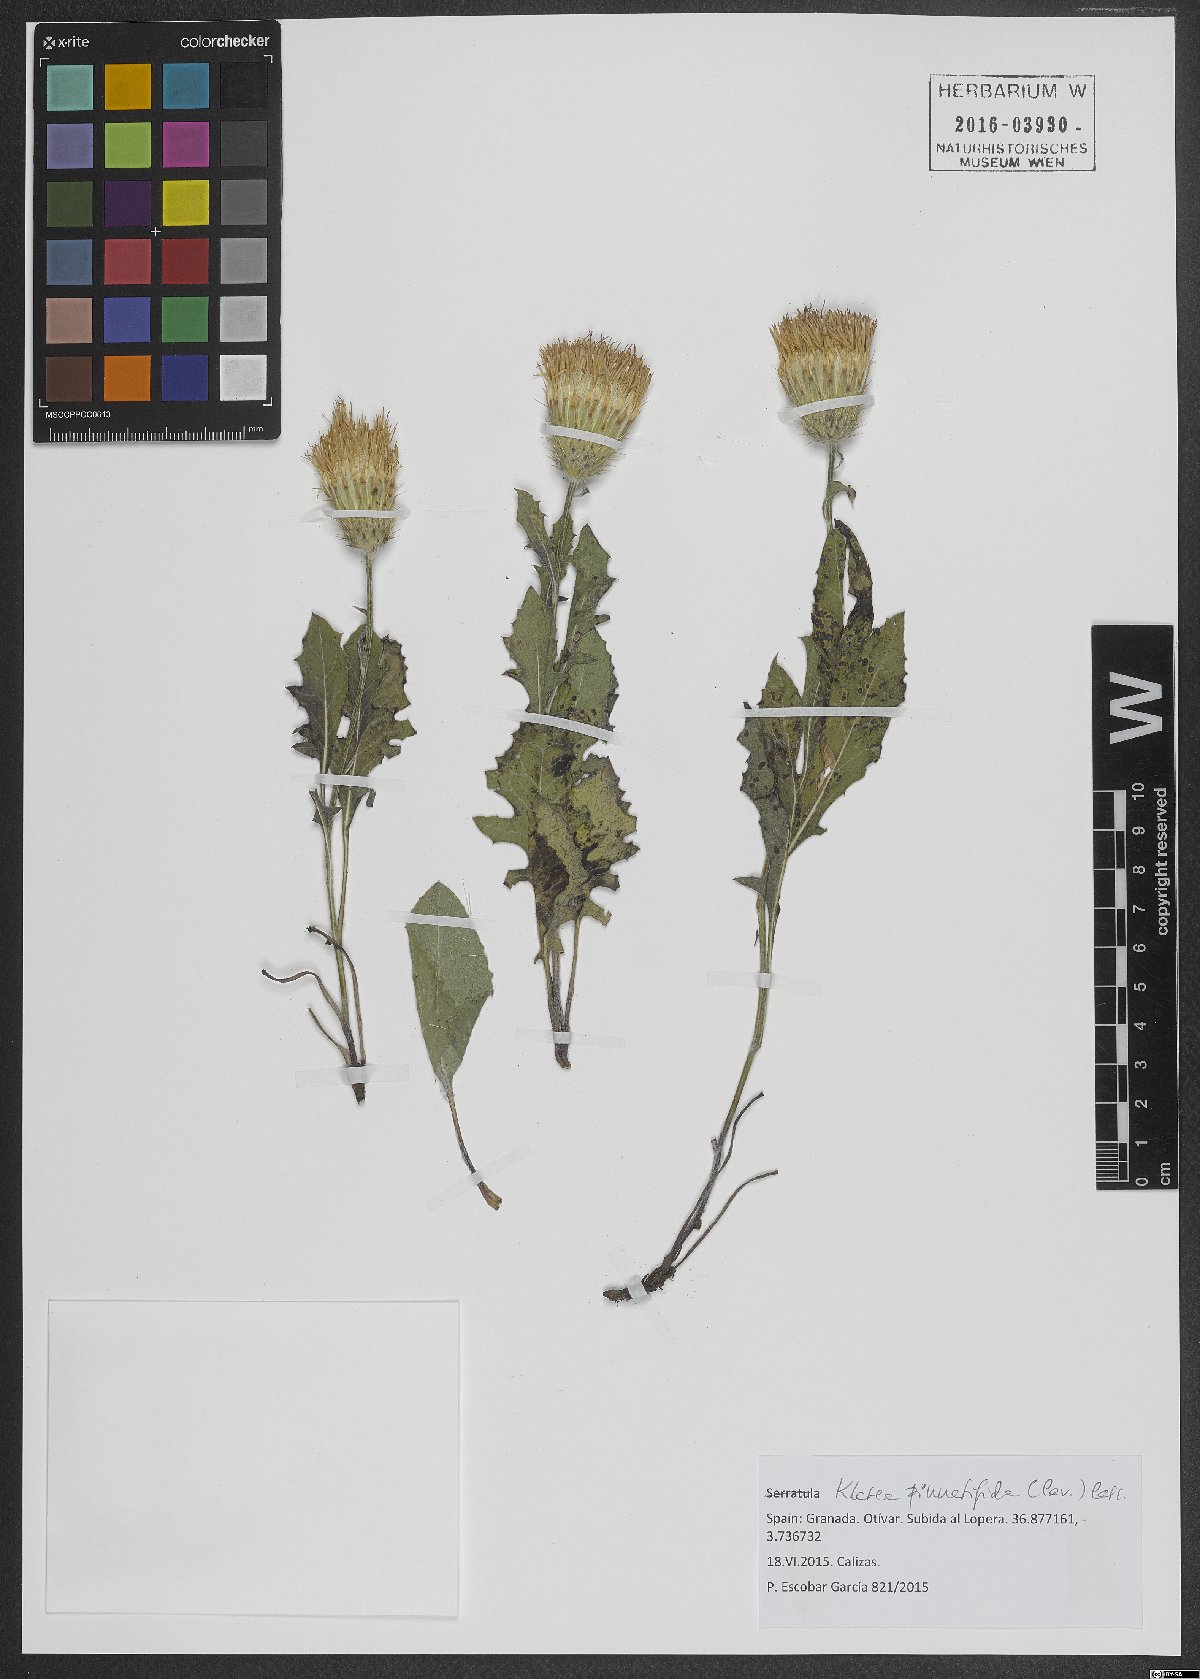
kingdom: Plantae
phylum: Tracheophyta
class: Magnoliopsida
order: Asterales
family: Asteraceae
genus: Klasea
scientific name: Klasea radiata
